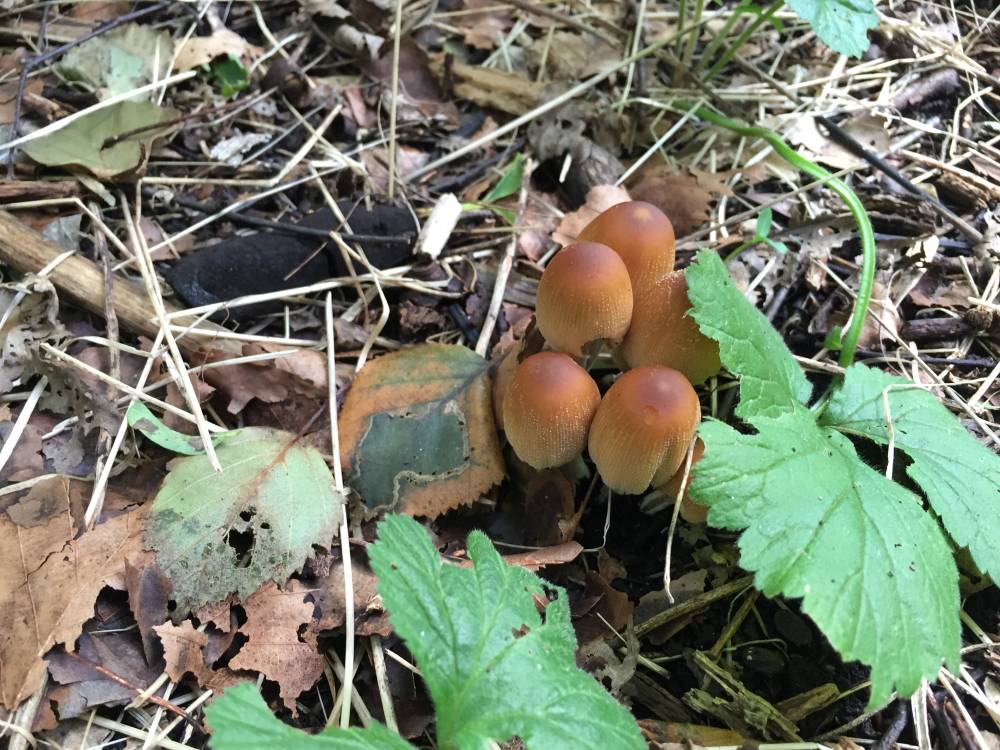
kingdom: Fungi
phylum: Basidiomycota
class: Agaricomycetes
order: Agaricales
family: Psathyrellaceae
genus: Coprinellus
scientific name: Coprinellus micaceus
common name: glimmer-blækhat
